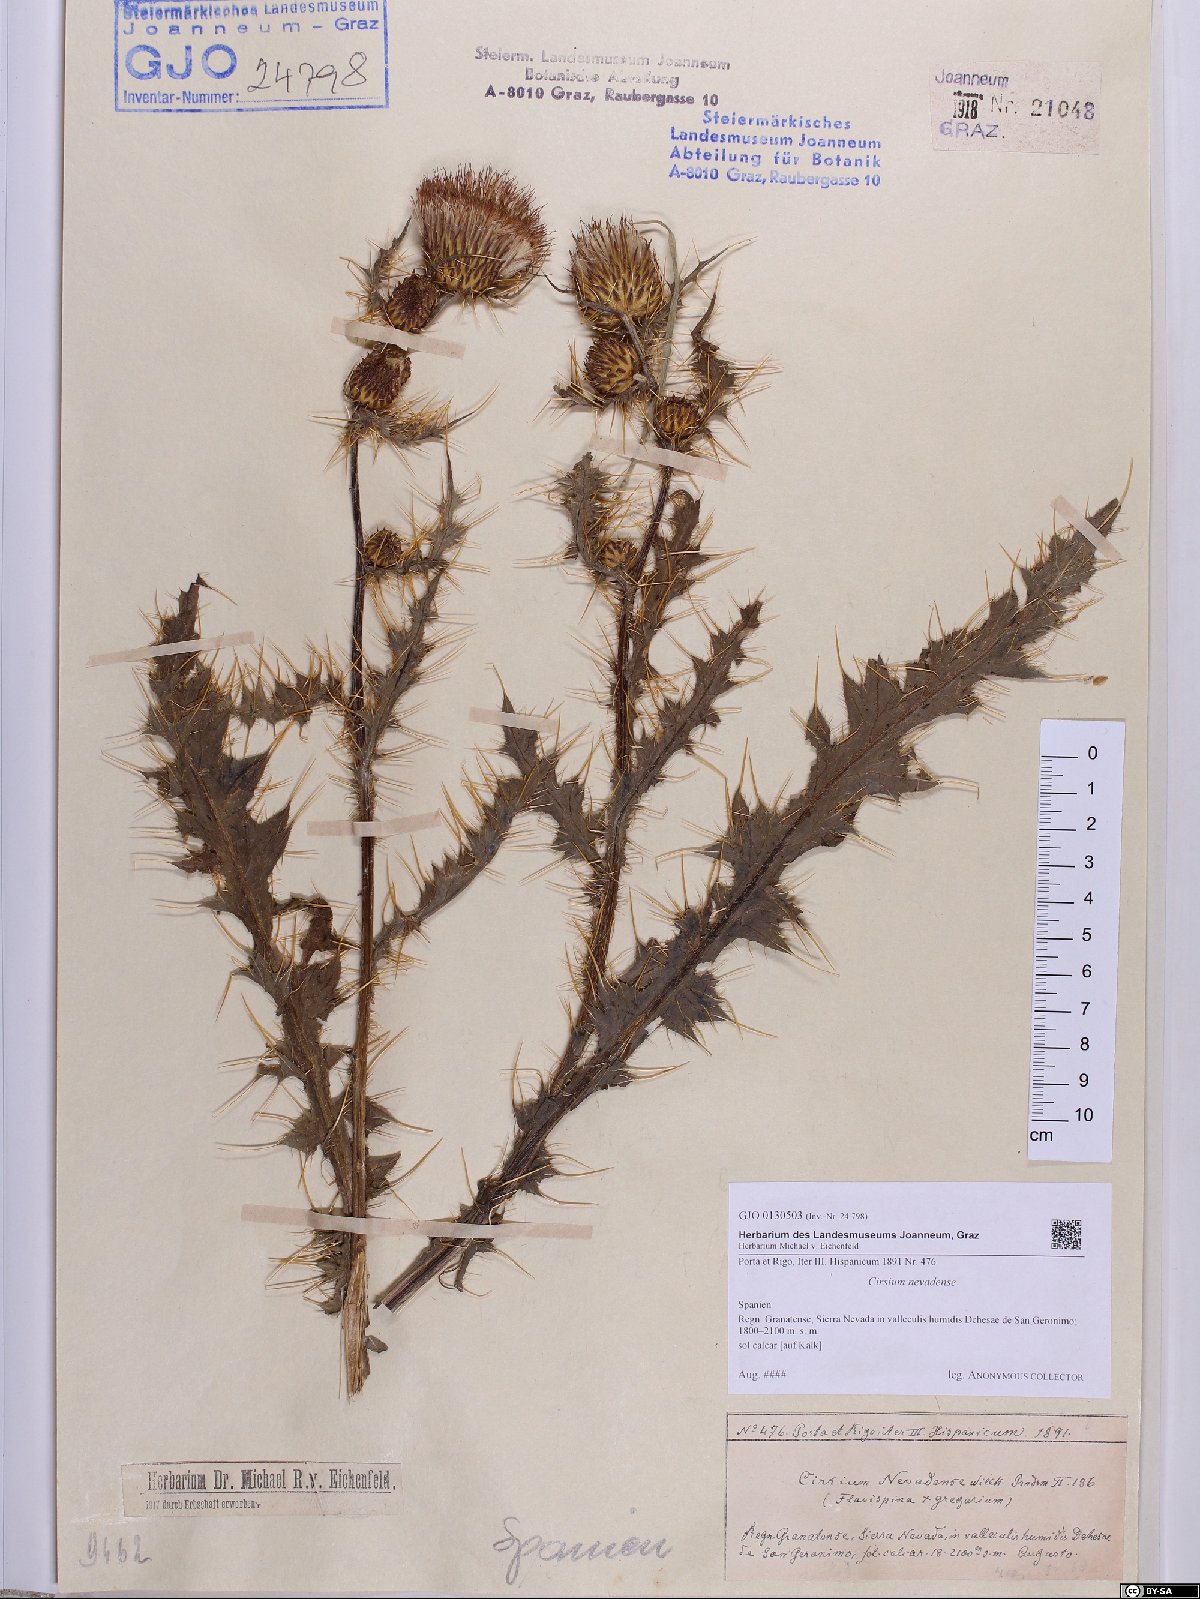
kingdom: Plantae
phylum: Tracheophyta
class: Magnoliopsida
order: Asterales
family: Asteraceae
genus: Cirsium
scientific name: Cirsium nevadense
